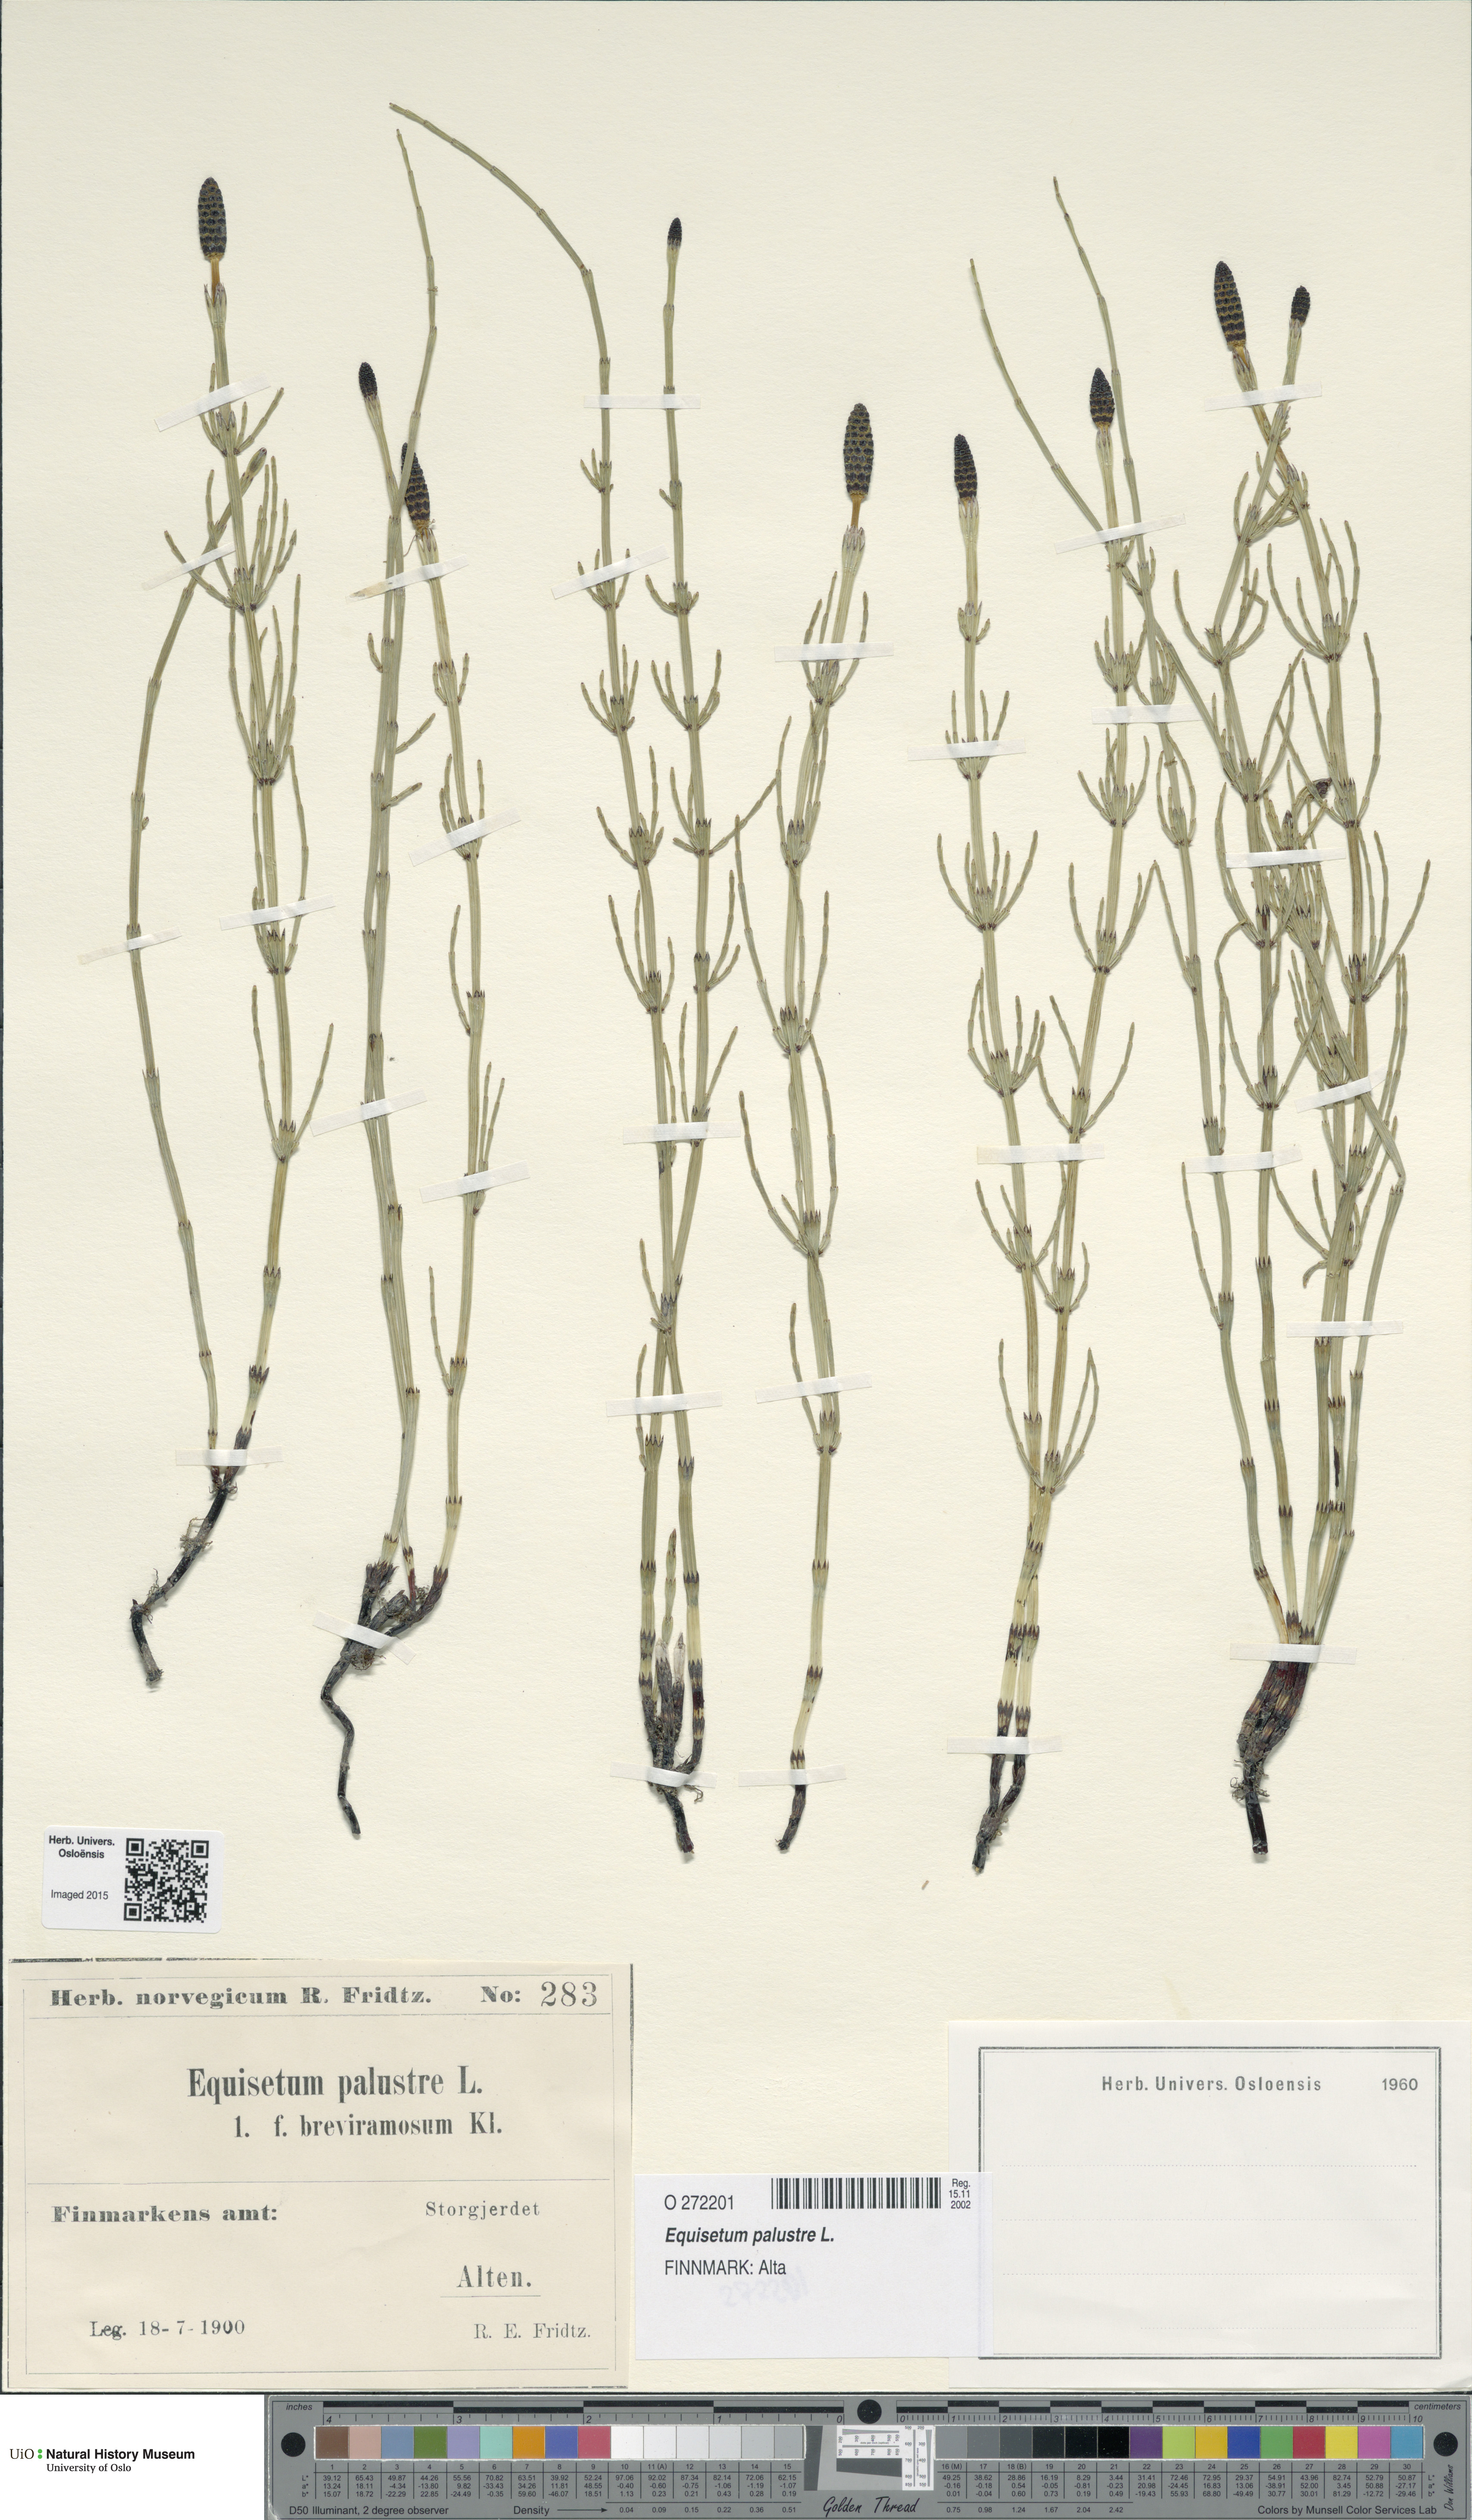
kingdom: Plantae
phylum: Tracheophyta
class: Polypodiopsida
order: Equisetales
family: Equisetaceae
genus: Equisetum
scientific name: Equisetum palustre
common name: Marsh horsetail
